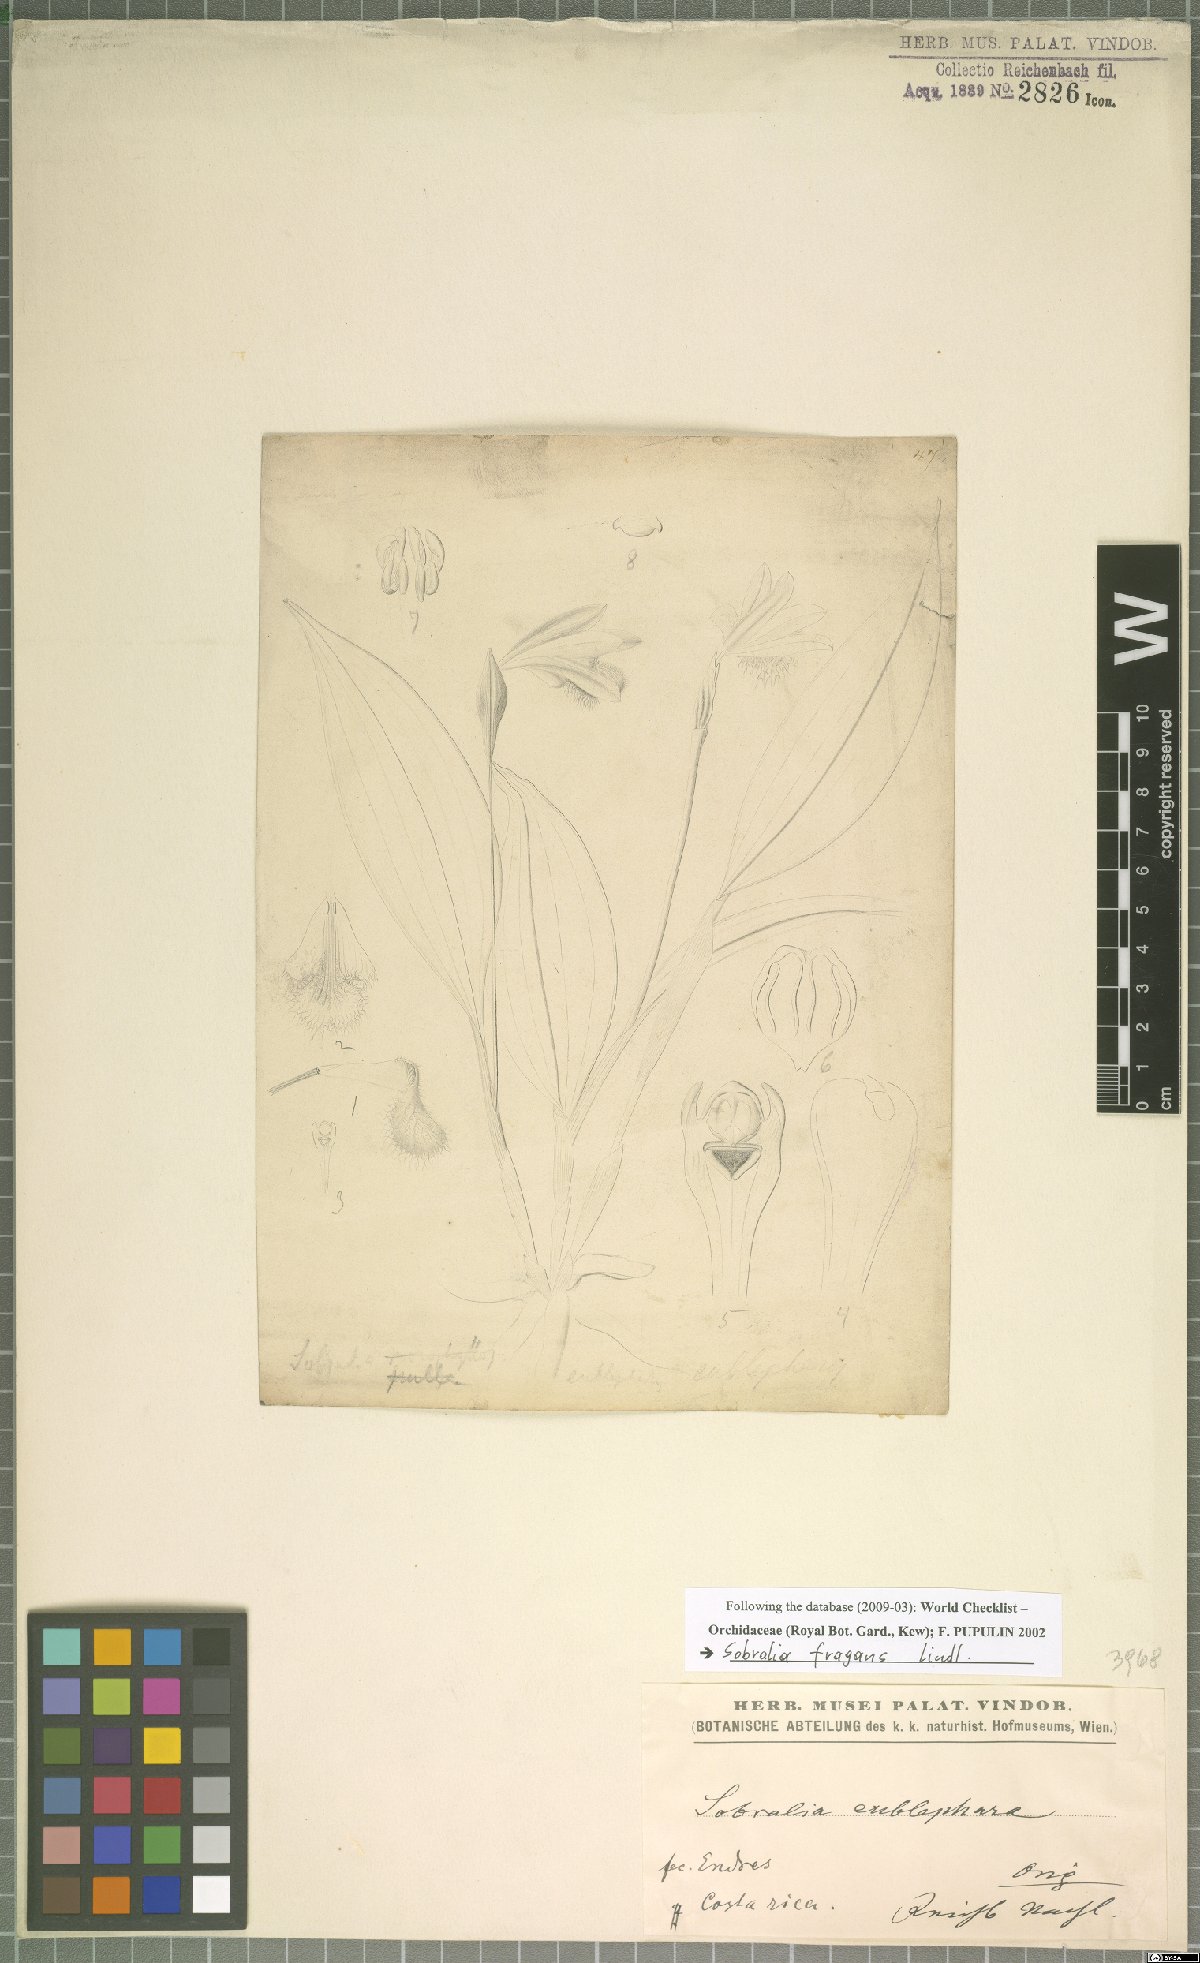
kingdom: Plantae
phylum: Tracheophyta
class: Liliopsida
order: Asparagales
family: Orchidaceae
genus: Sobralia
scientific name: Sobralia fragrans
